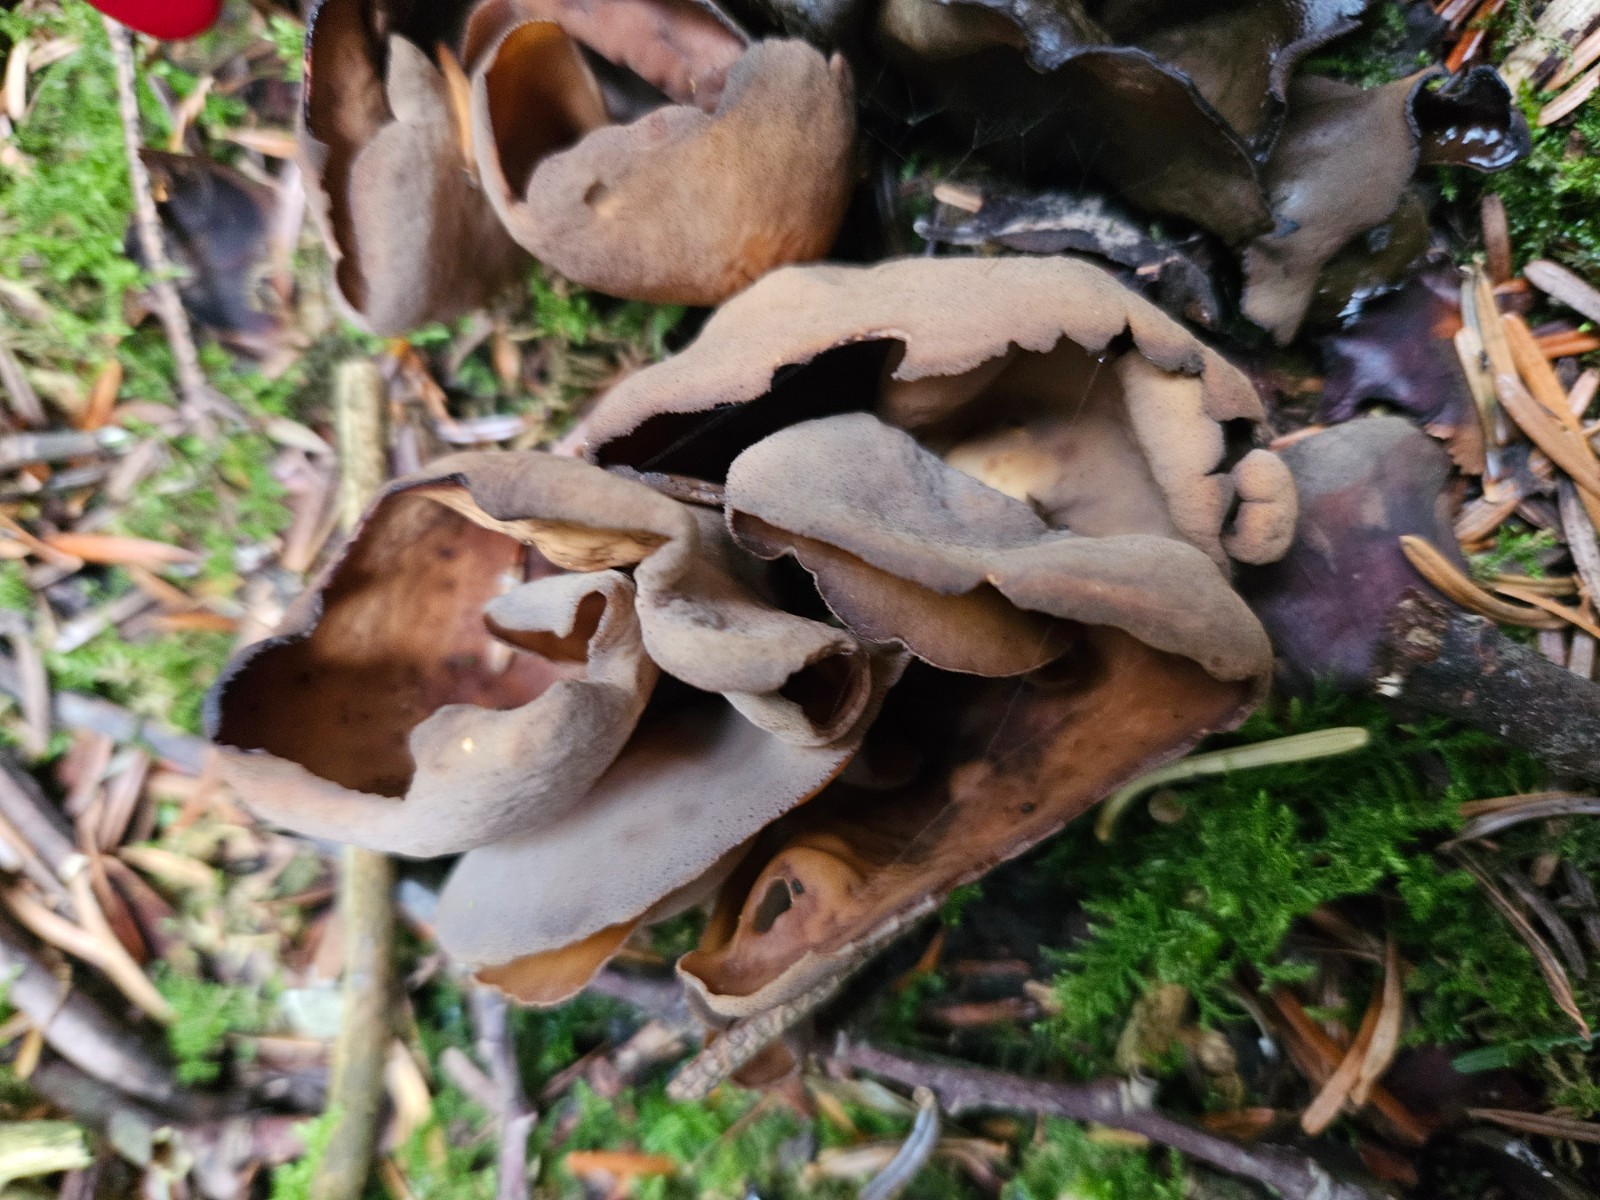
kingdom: Fungi
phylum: Ascomycota
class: Pezizomycetes
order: Pezizales
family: Otideaceae
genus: Otidea
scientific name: Otidea bufonia
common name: brun ørebæger
